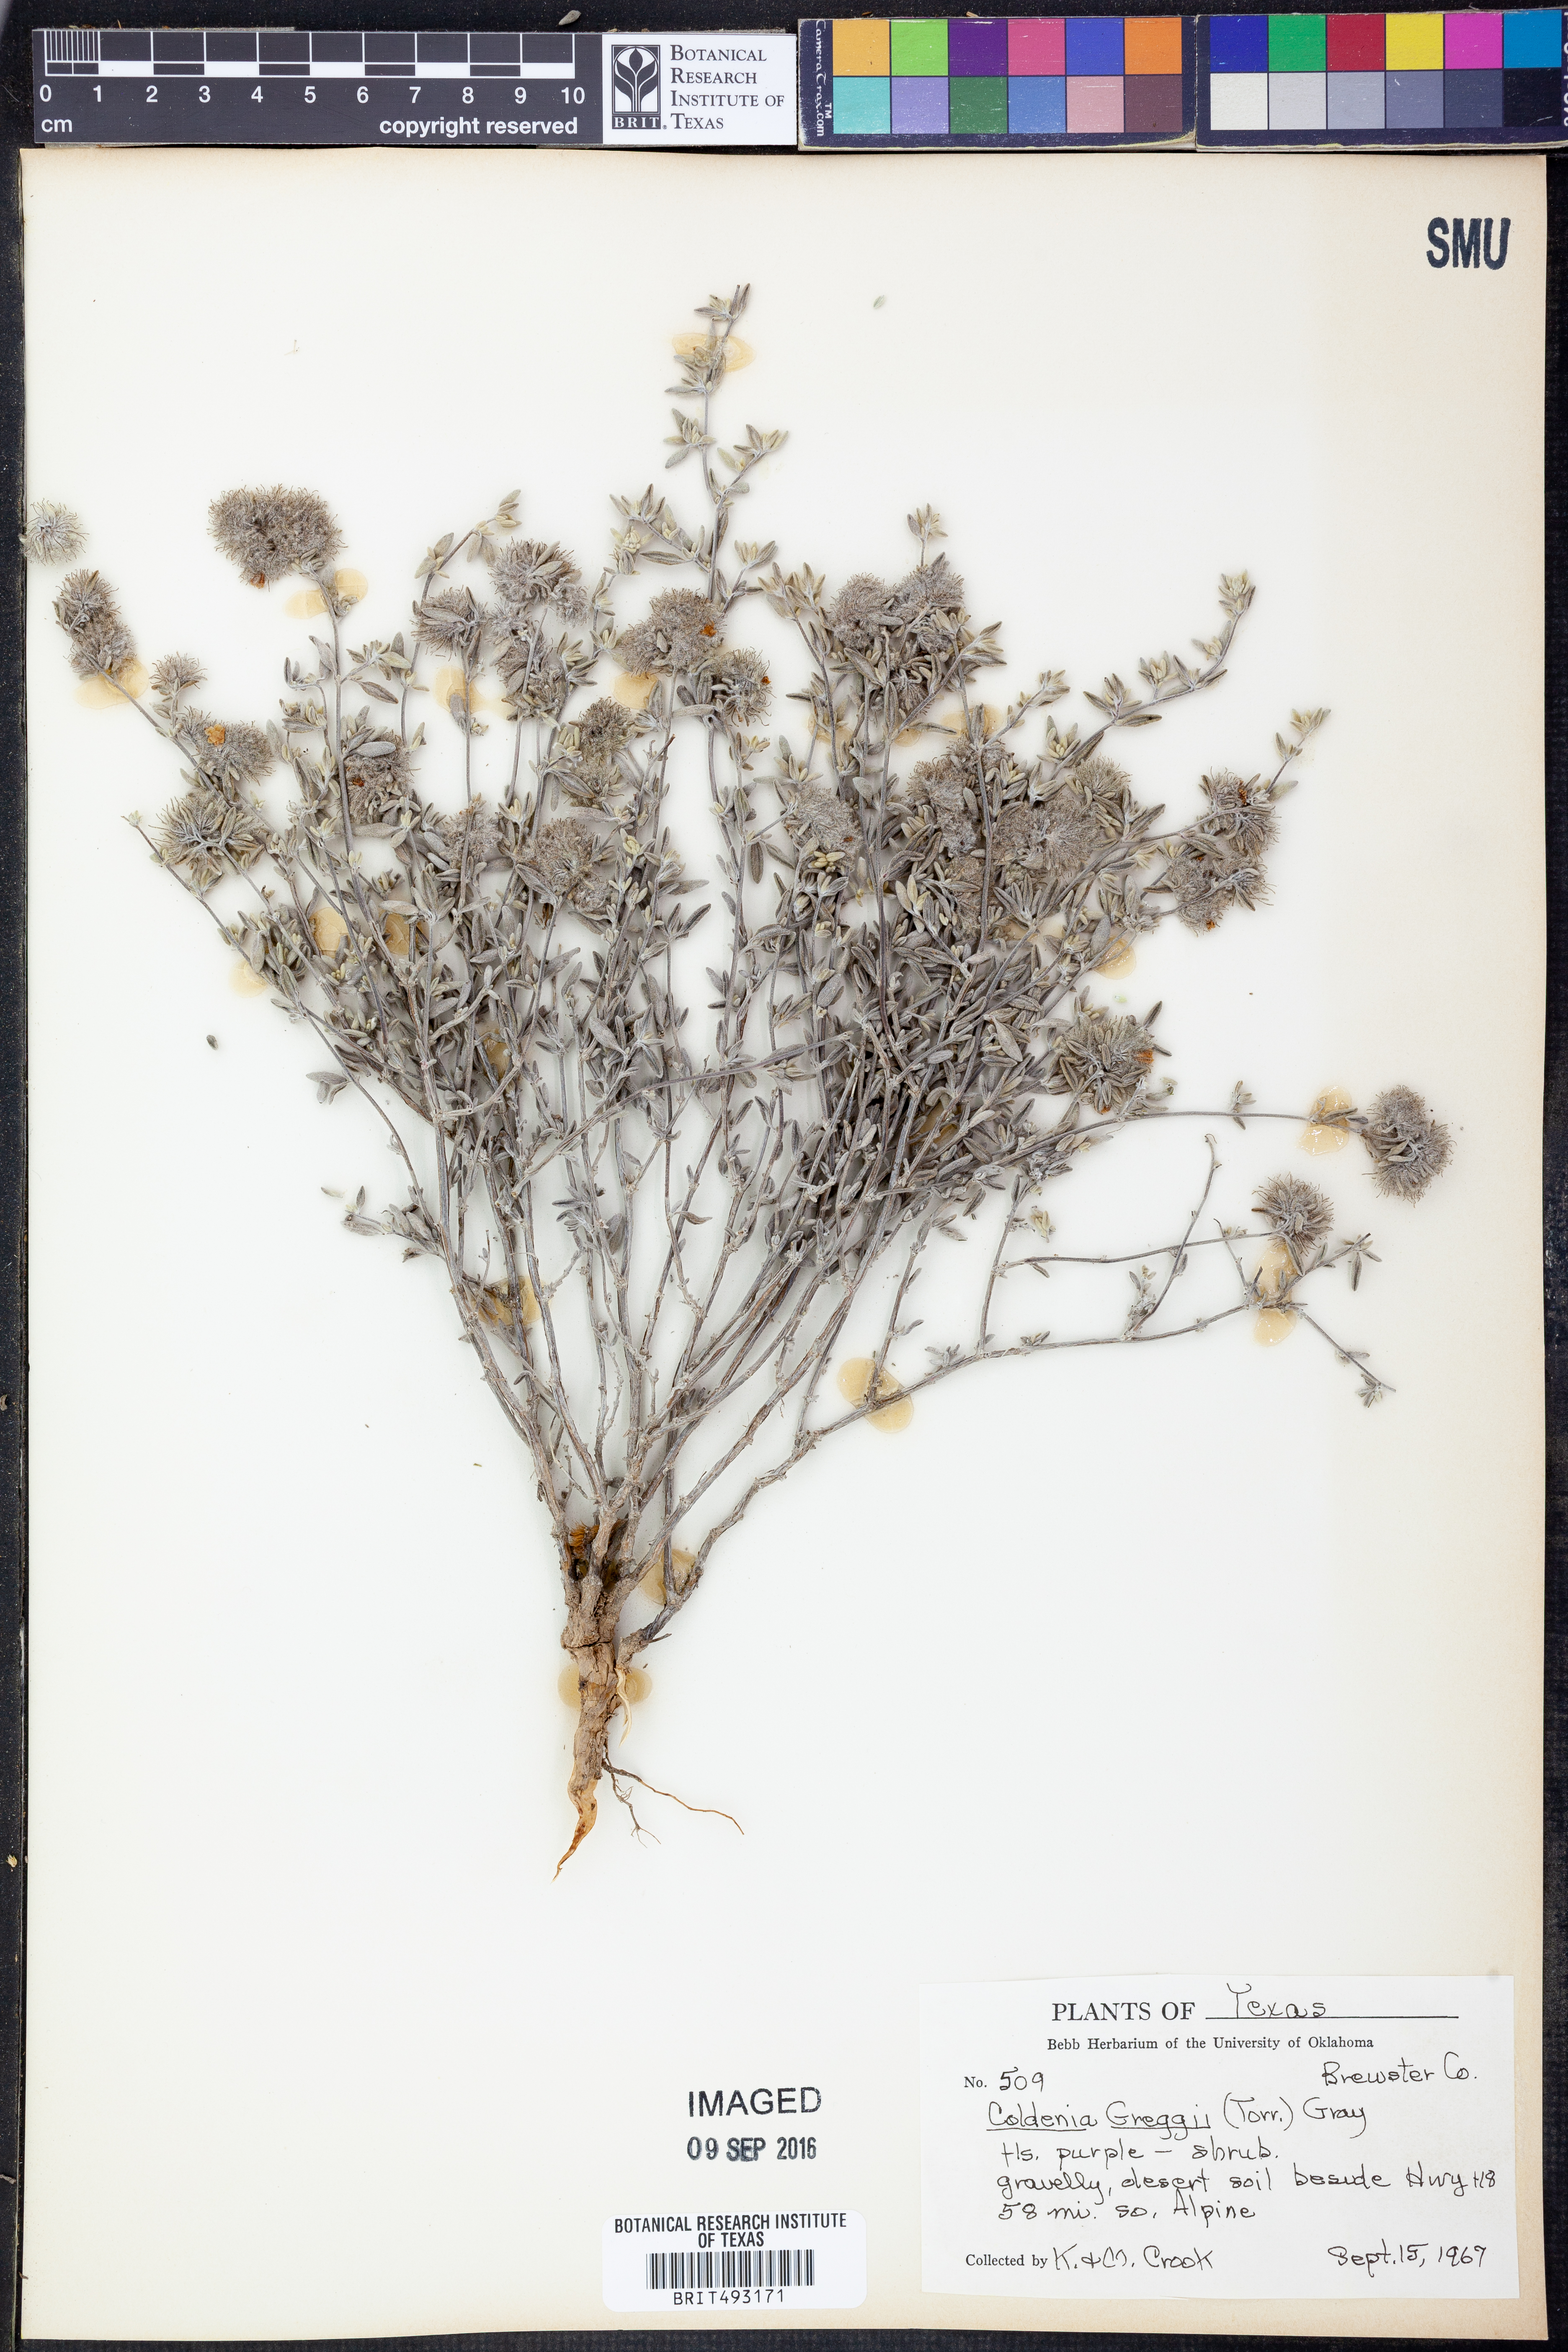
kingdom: Plantae
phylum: Tracheophyta
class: Magnoliopsida
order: Boraginales
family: Ehretiaceae
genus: Tiquilia
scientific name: Tiquilia greggii
